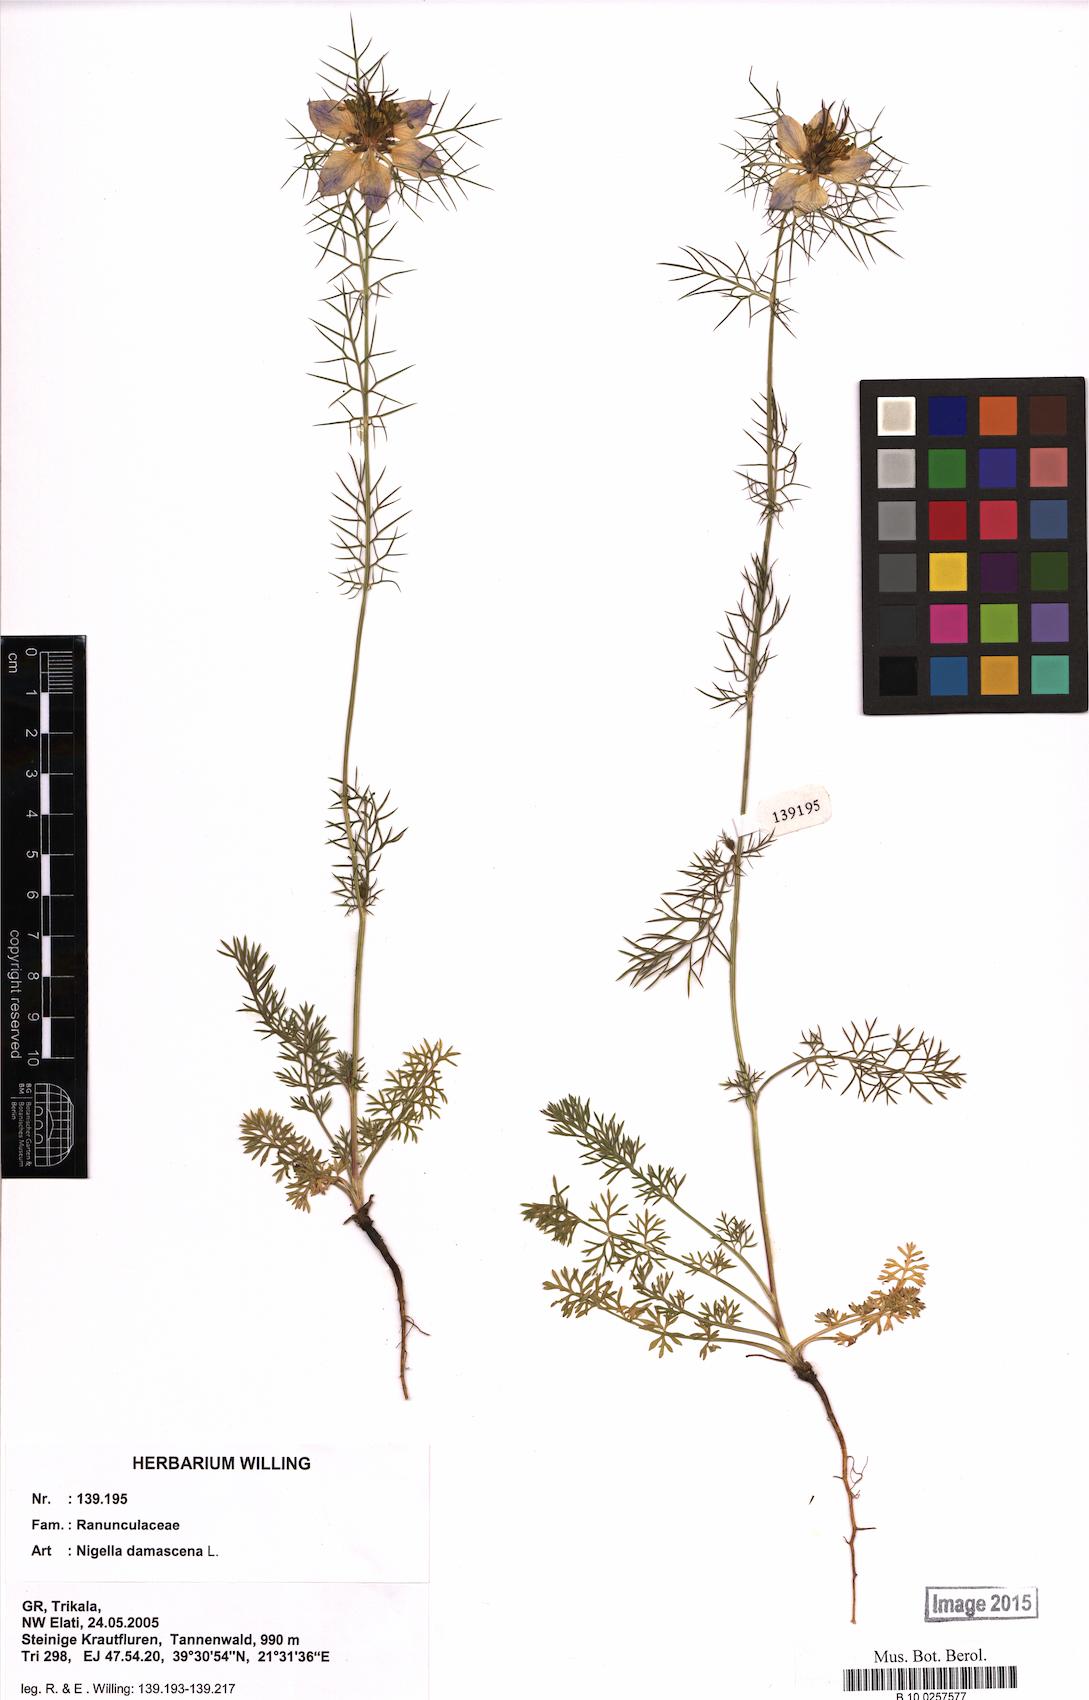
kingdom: Plantae
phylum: Tracheophyta
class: Magnoliopsida
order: Ranunculales
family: Ranunculaceae
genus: Nigella
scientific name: Nigella damascena
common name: Love-in-a-mist
